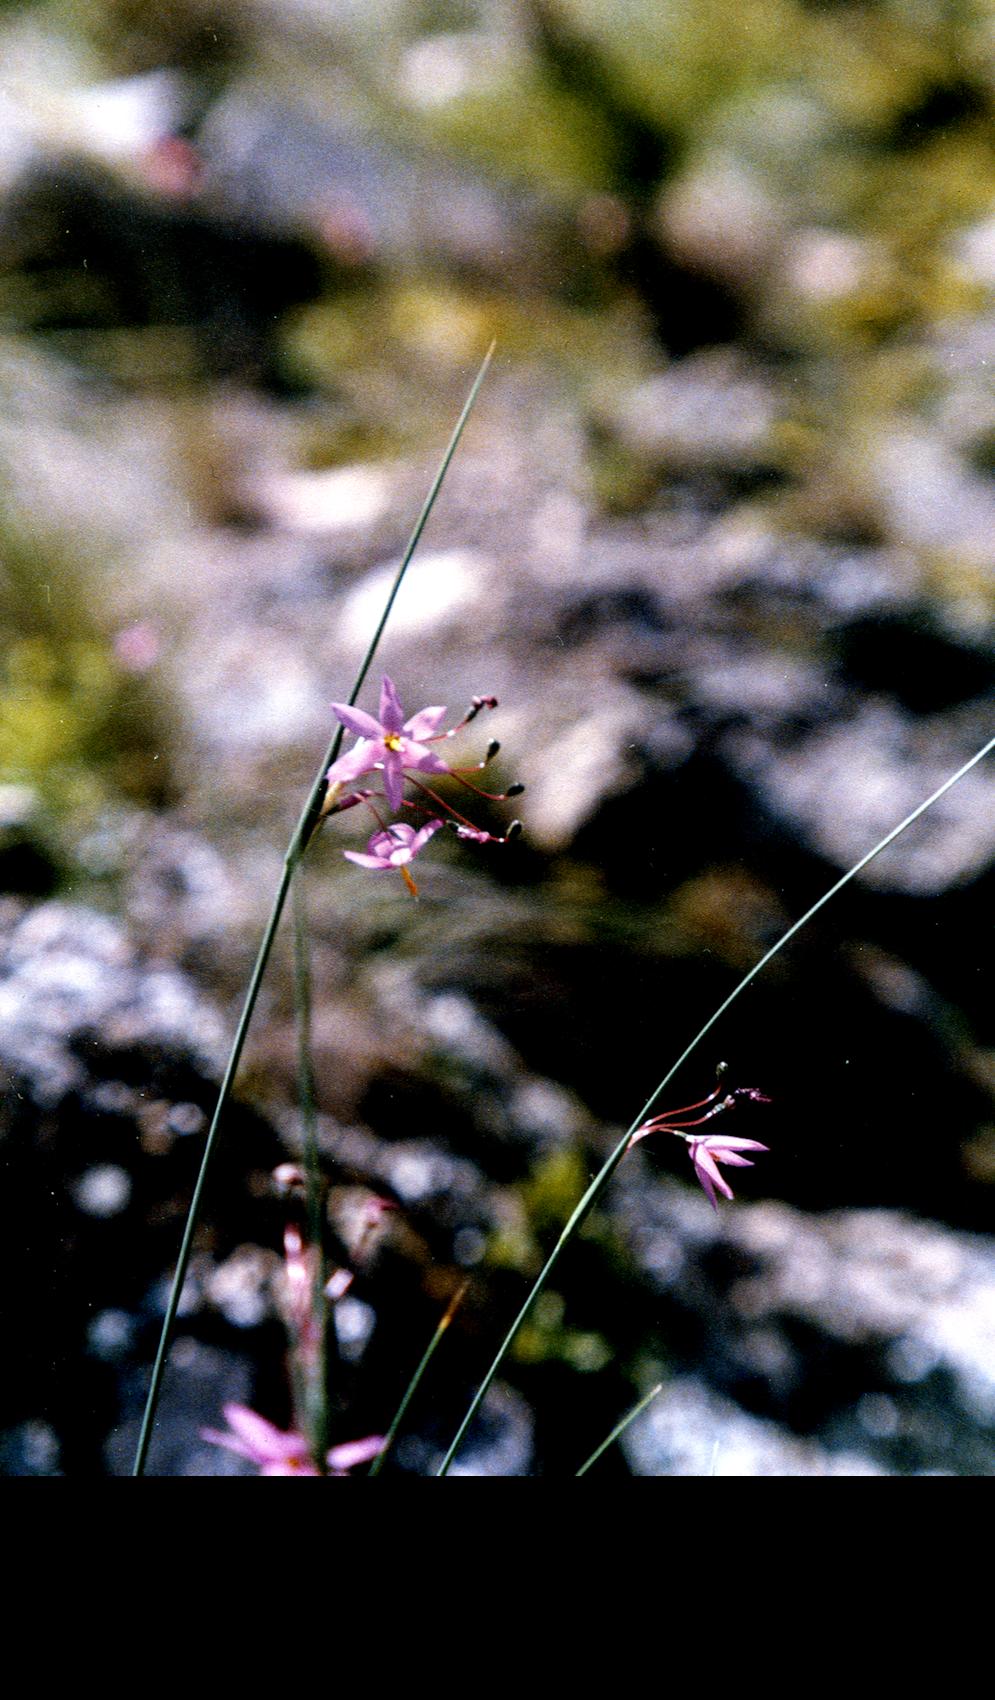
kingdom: Plantae
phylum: Tracheophyta
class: Liliopsida
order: Asparagales
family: Iridaceae
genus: Olsynium
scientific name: Olsynium junceum
